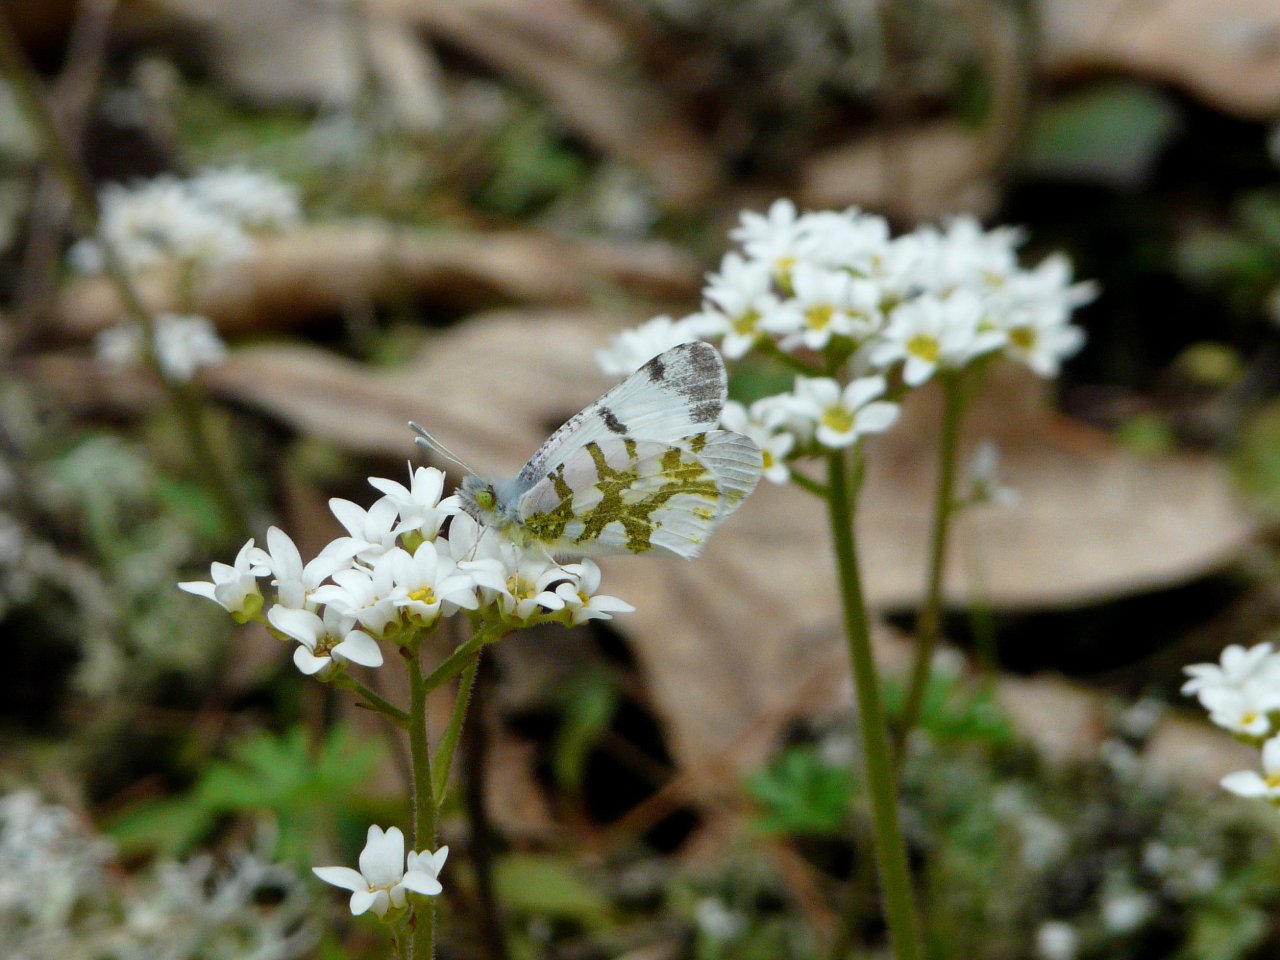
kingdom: Animalia
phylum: Arthropoda
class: Insecta
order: Lepidoptera
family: Pieridae
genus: Euchloe
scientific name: Euchloe olympia
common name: Olympia Marble
